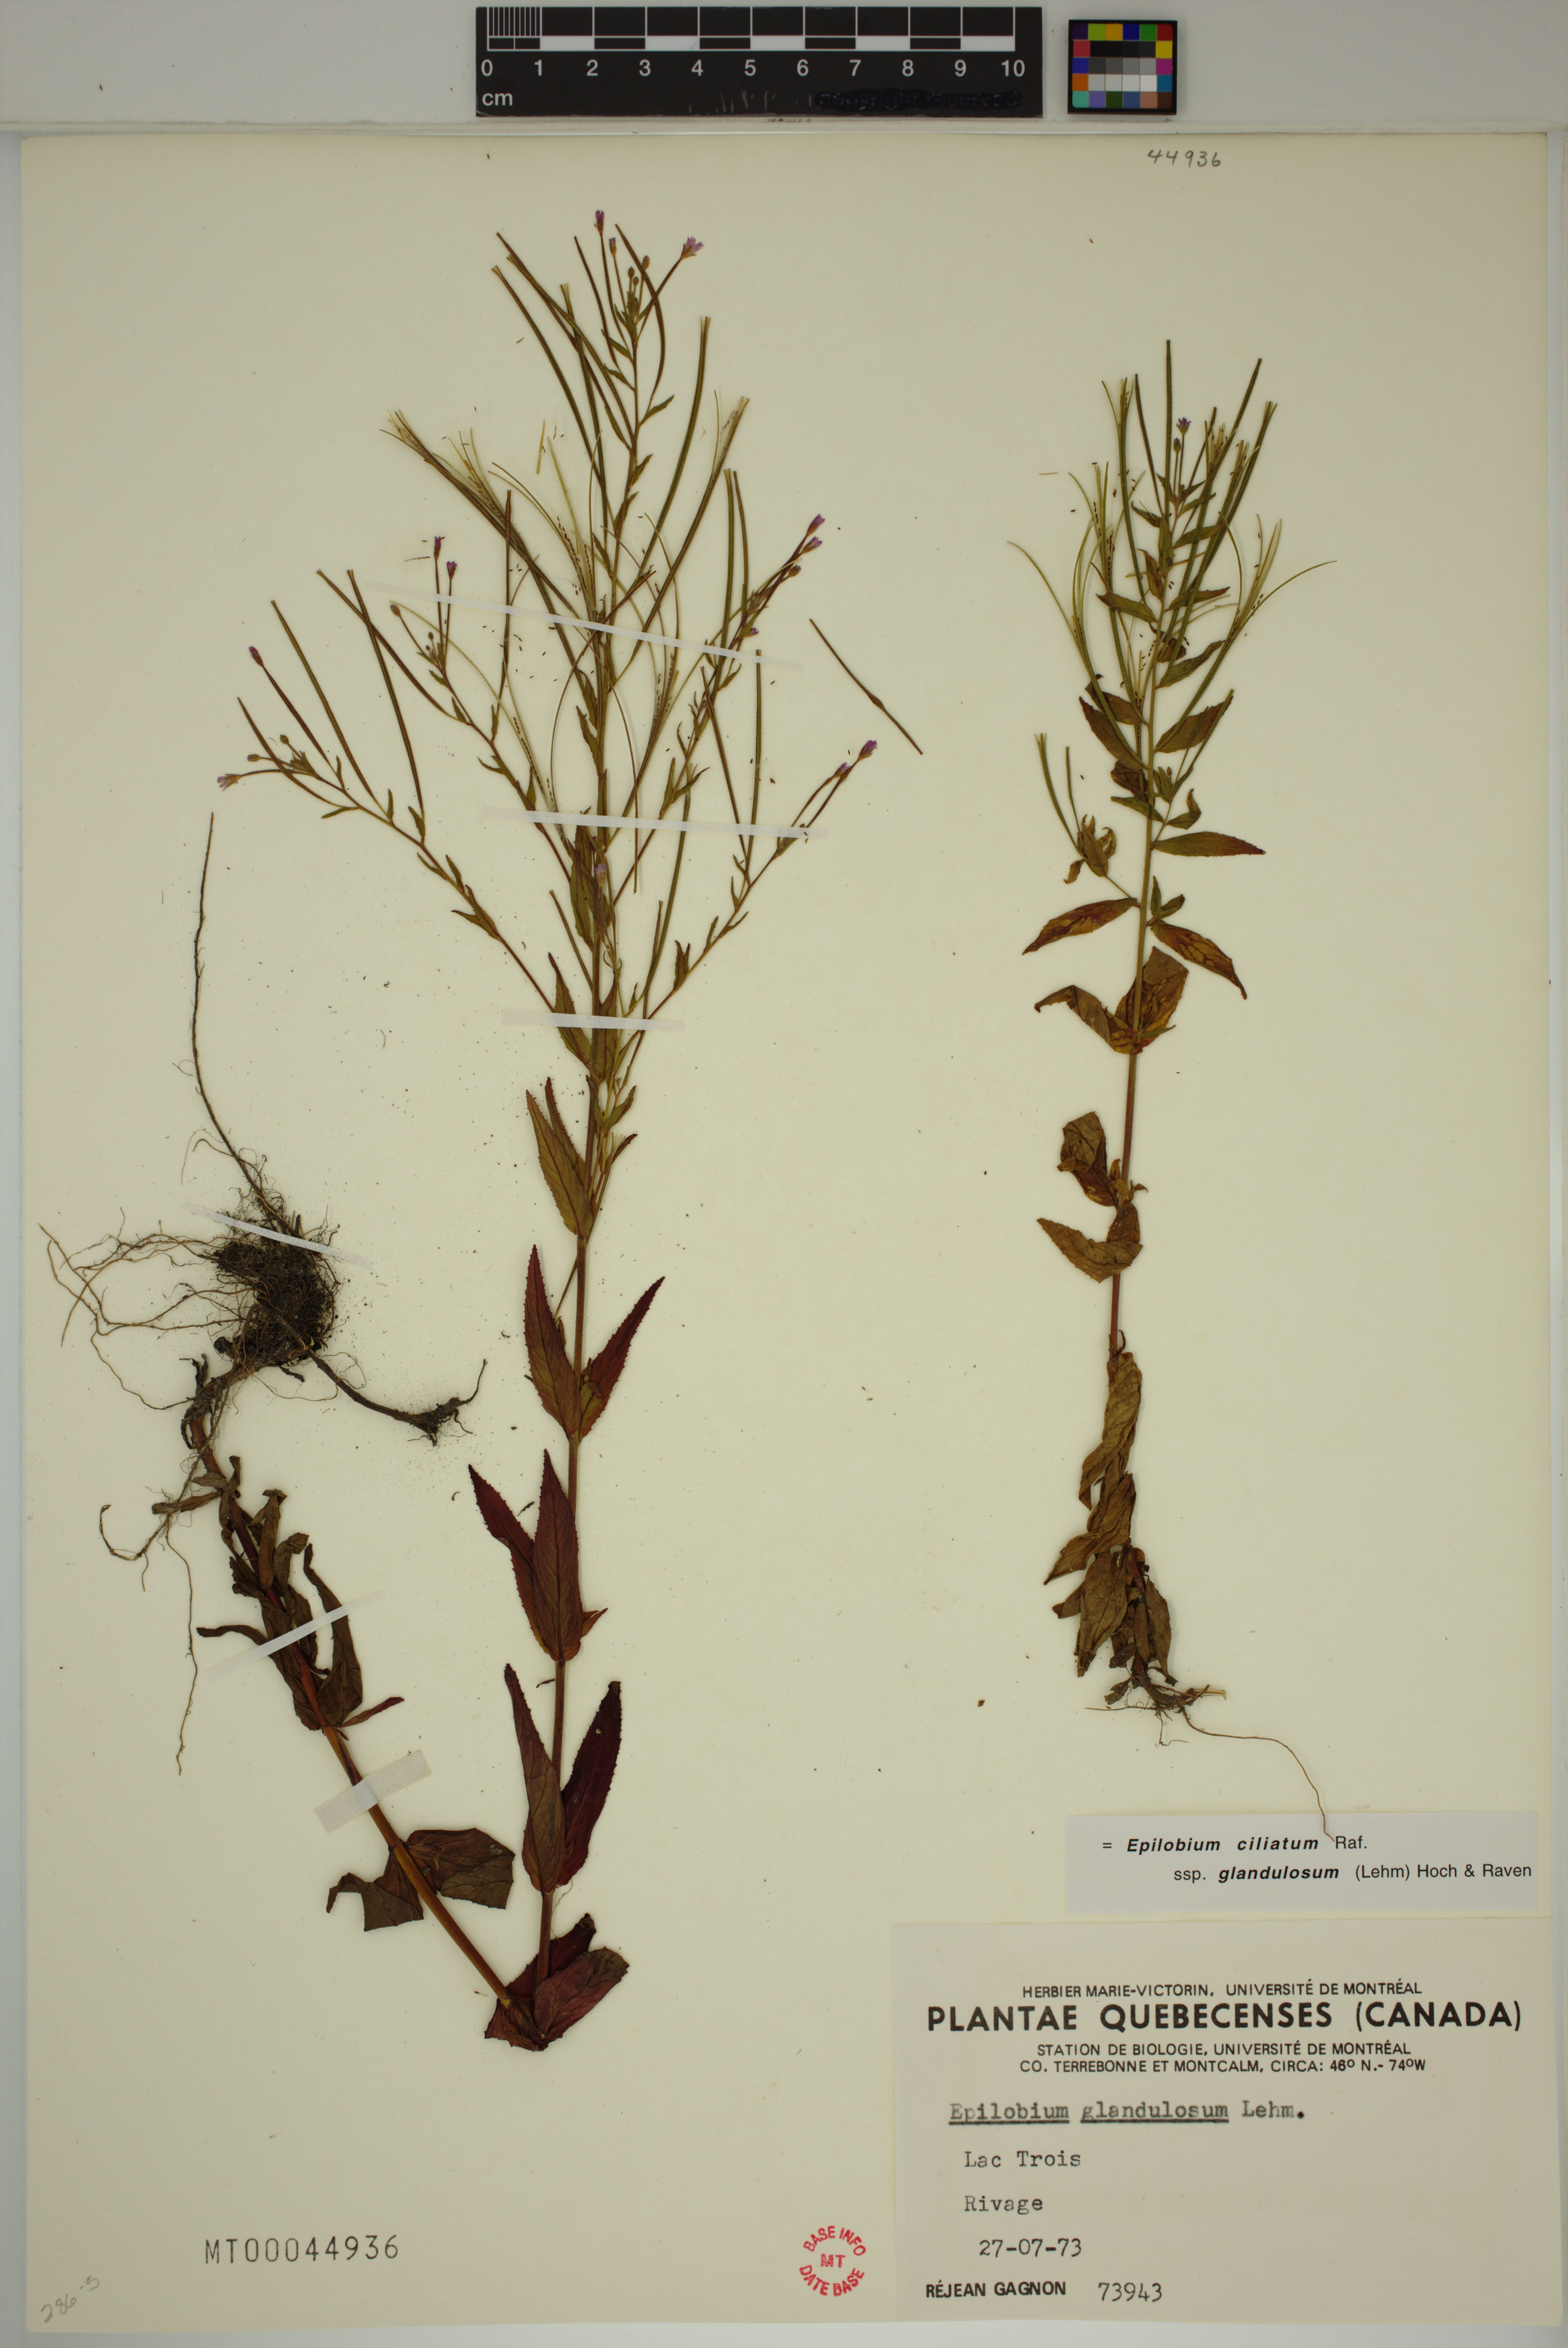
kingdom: Plantae
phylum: Tracheophyta
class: Magnoliopsida
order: Myrtales
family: Onagraceae
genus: Epilobium
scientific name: Epilobium ciliatum
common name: American willowherb
